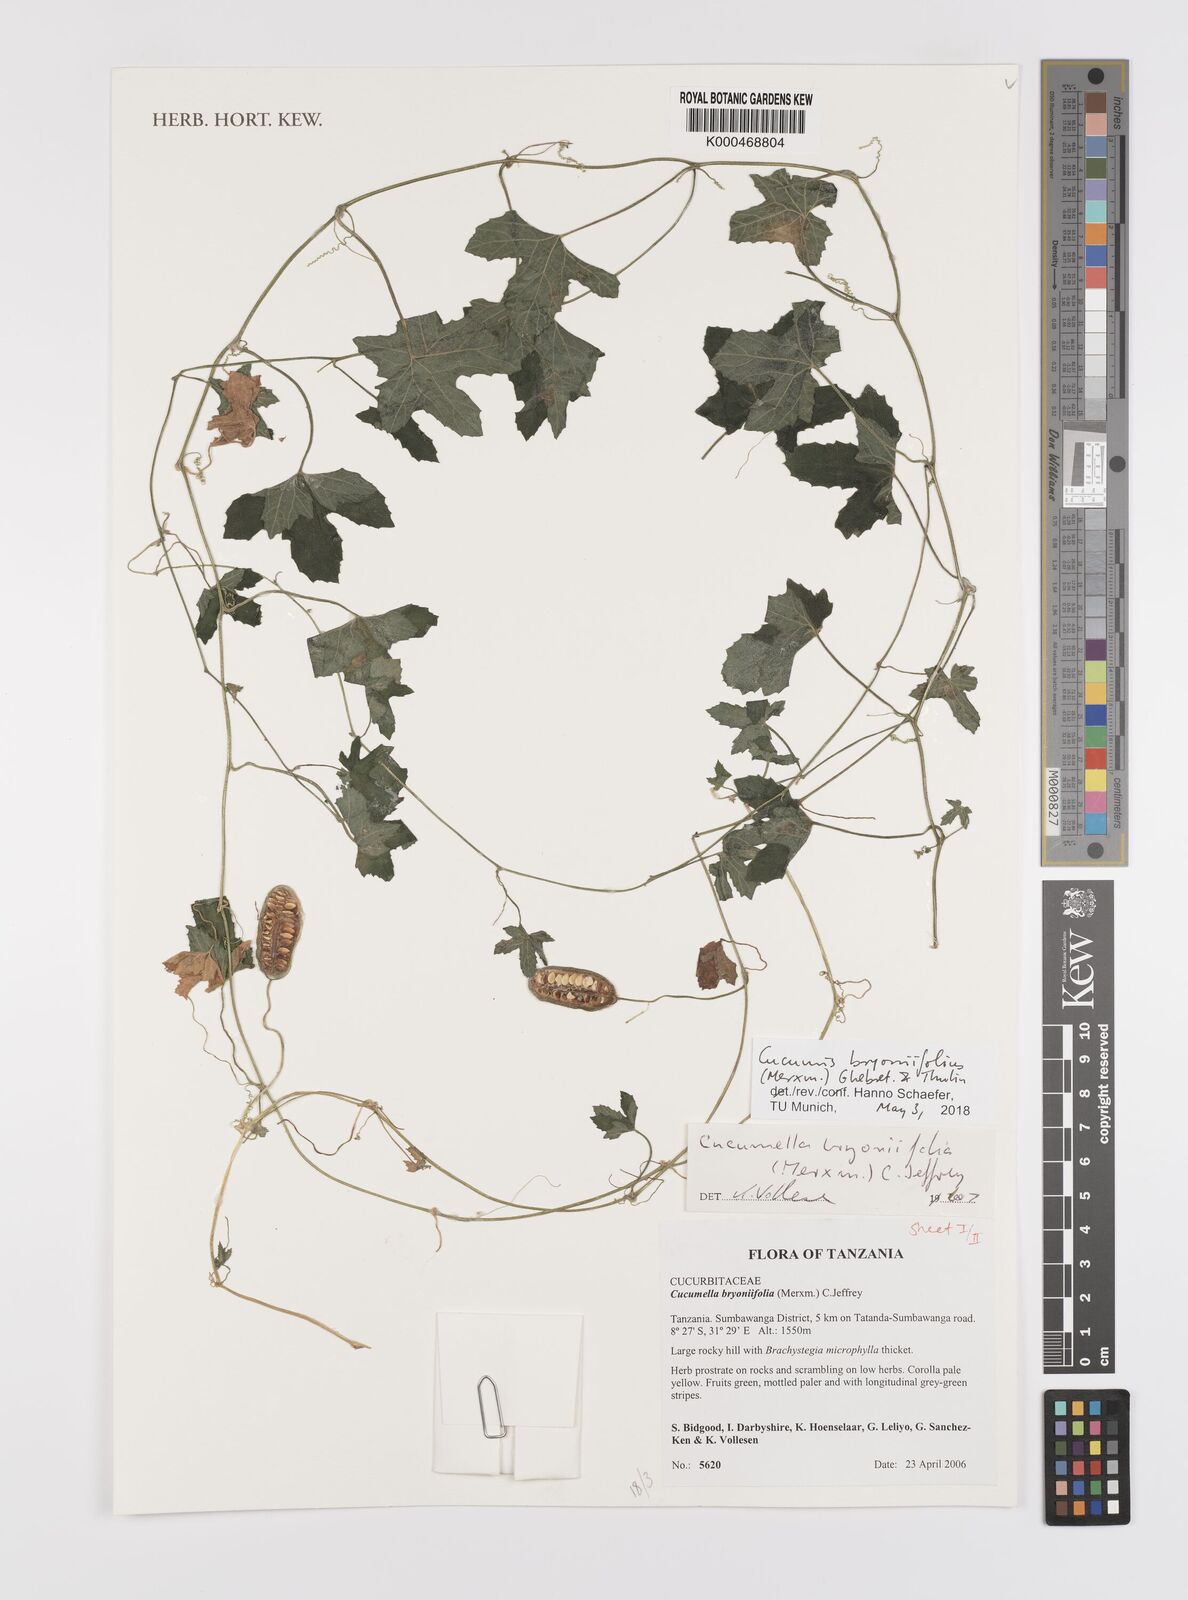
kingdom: Plantae
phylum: Tracheophyta
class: Magnoliopsida
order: Cucurbitales
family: Cucurbitaceae
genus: Cucumis
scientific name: Cucumis bryoniifolius
